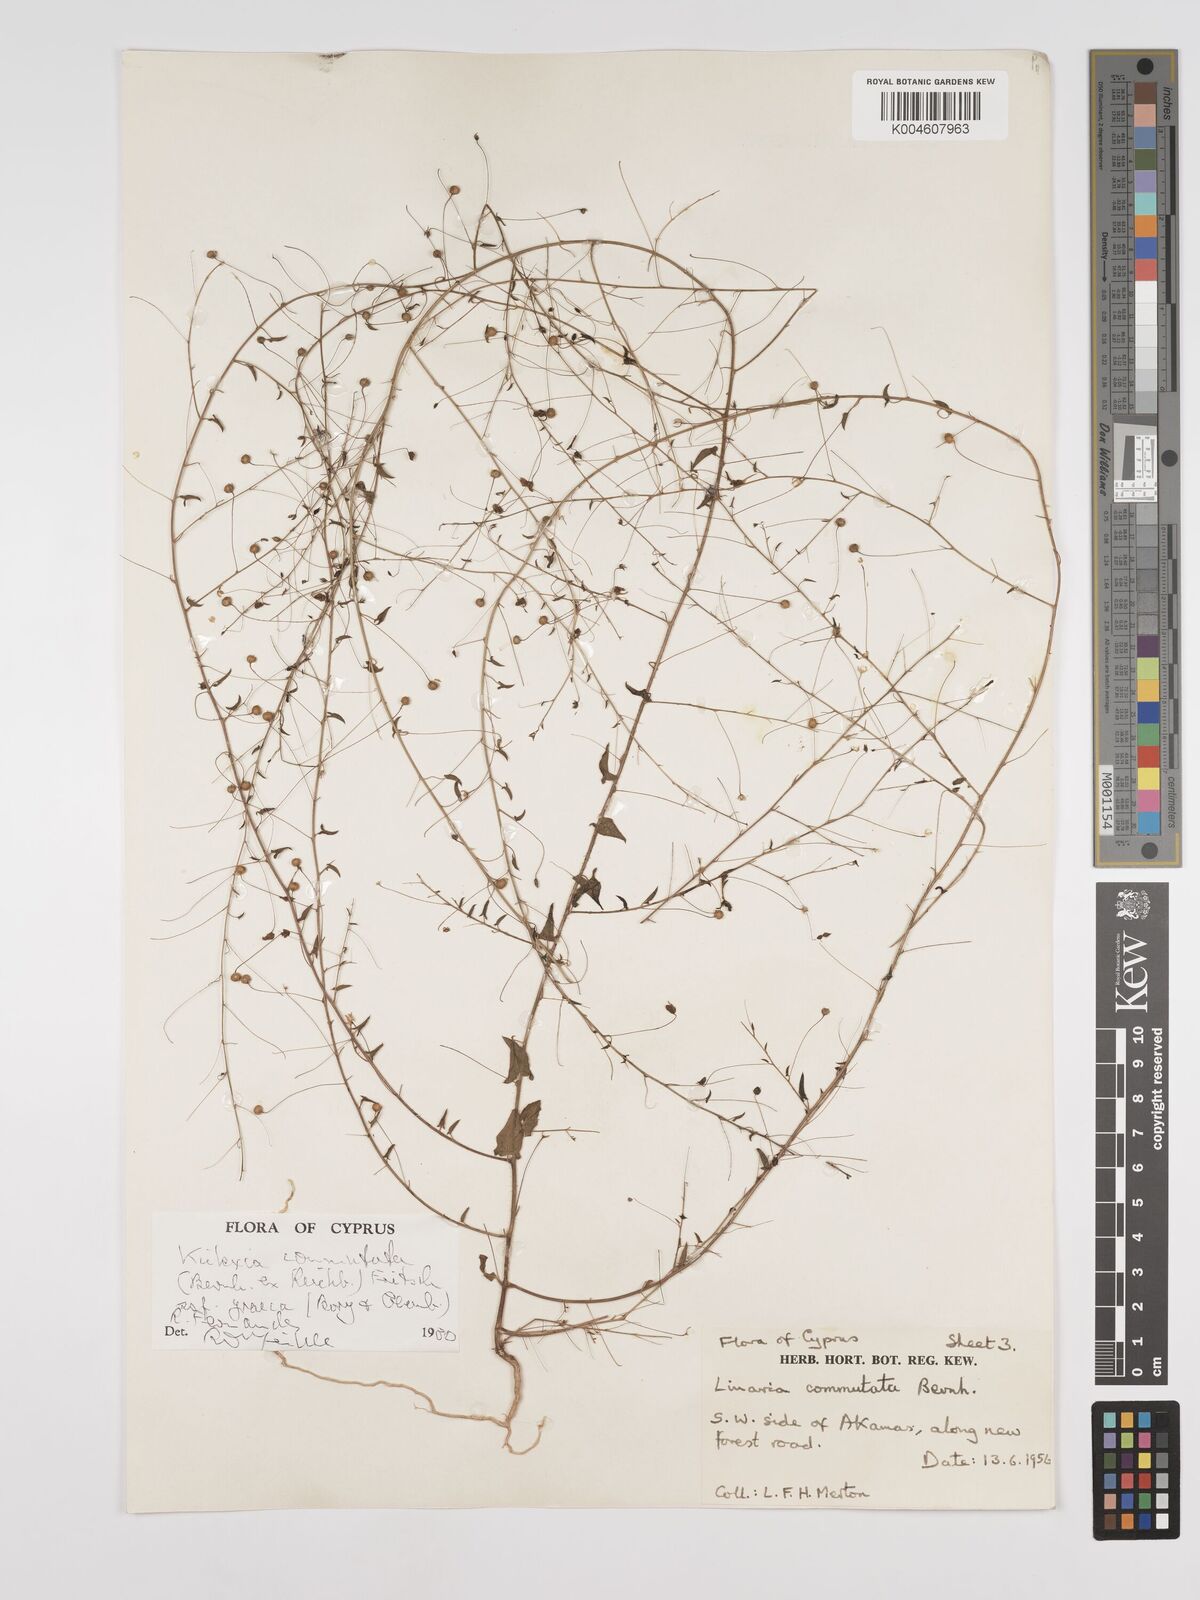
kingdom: Plantae
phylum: Tracheophyta
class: Magnoliopsida
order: Lamiales
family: Plantaginaceae
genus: Kickxia
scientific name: Kickxia commutata
